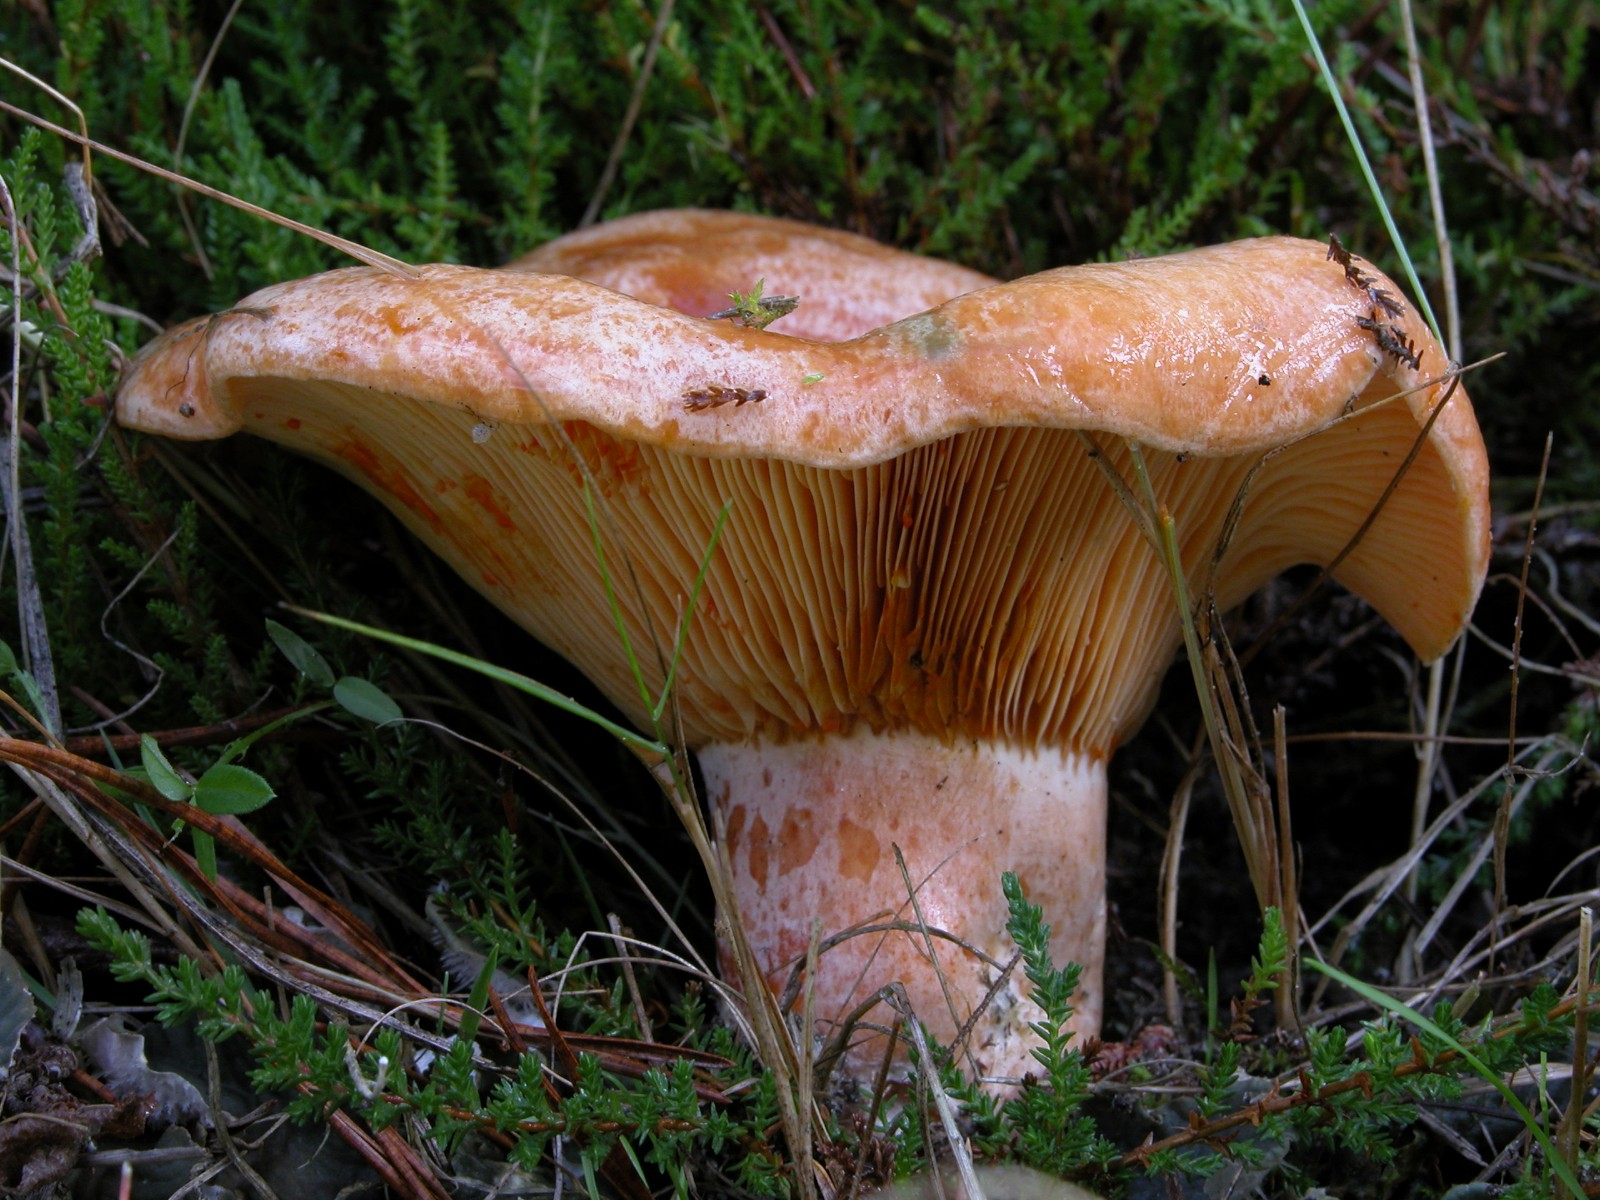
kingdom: Fungi
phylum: Basidiomycota
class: Agaricomycetes
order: Russulales
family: Russulaceae
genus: Lactarius
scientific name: Lactarius deliciosus
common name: velsmagende mælkehat
